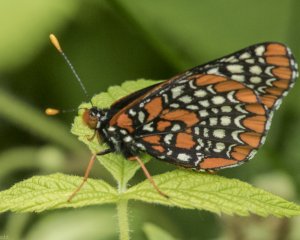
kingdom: Animalia
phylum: Arthropoda
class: Insecta
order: Lepidoptera
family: Nymphalidae
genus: Euphydryas
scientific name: Euphydryas phaeton
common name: Baltimore Checkerspot
